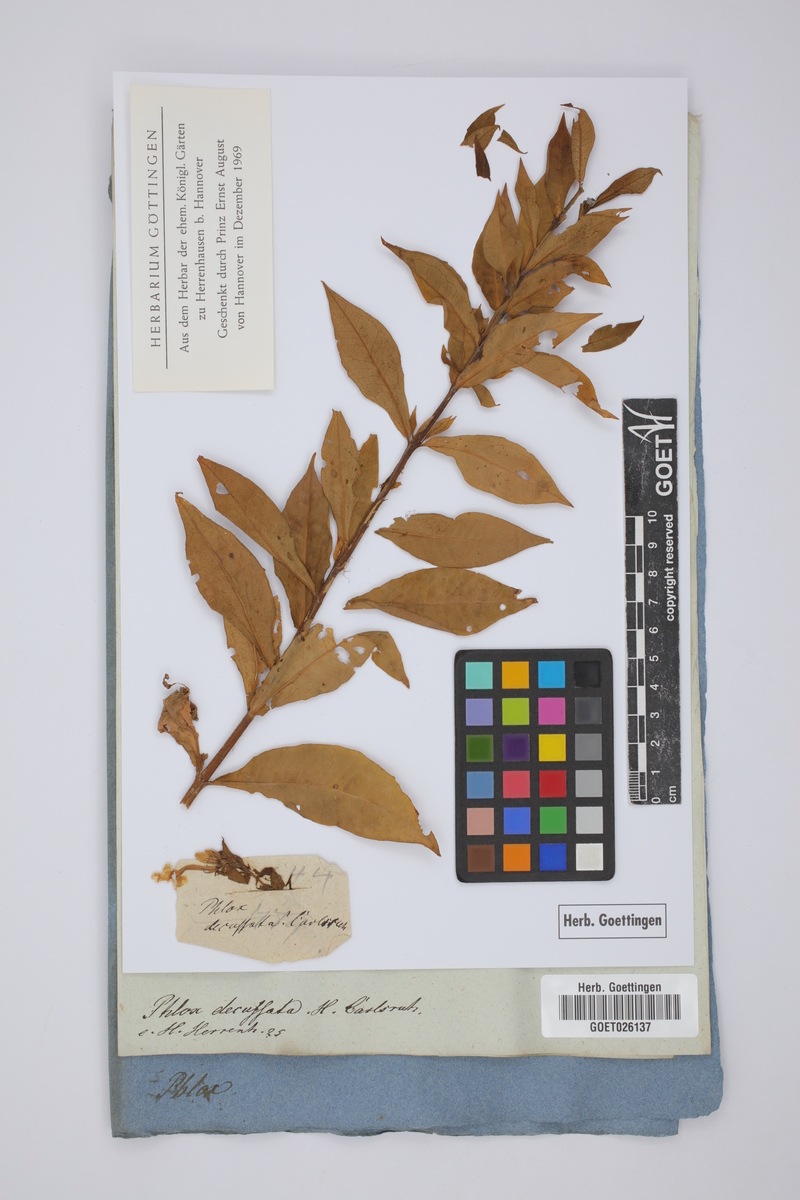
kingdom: Plantae
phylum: Tracheophyta
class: Magnoliopsida
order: Ericales
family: Polemoniaceae
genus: Phlox
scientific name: Phlox paniculata
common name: Fall phlox
